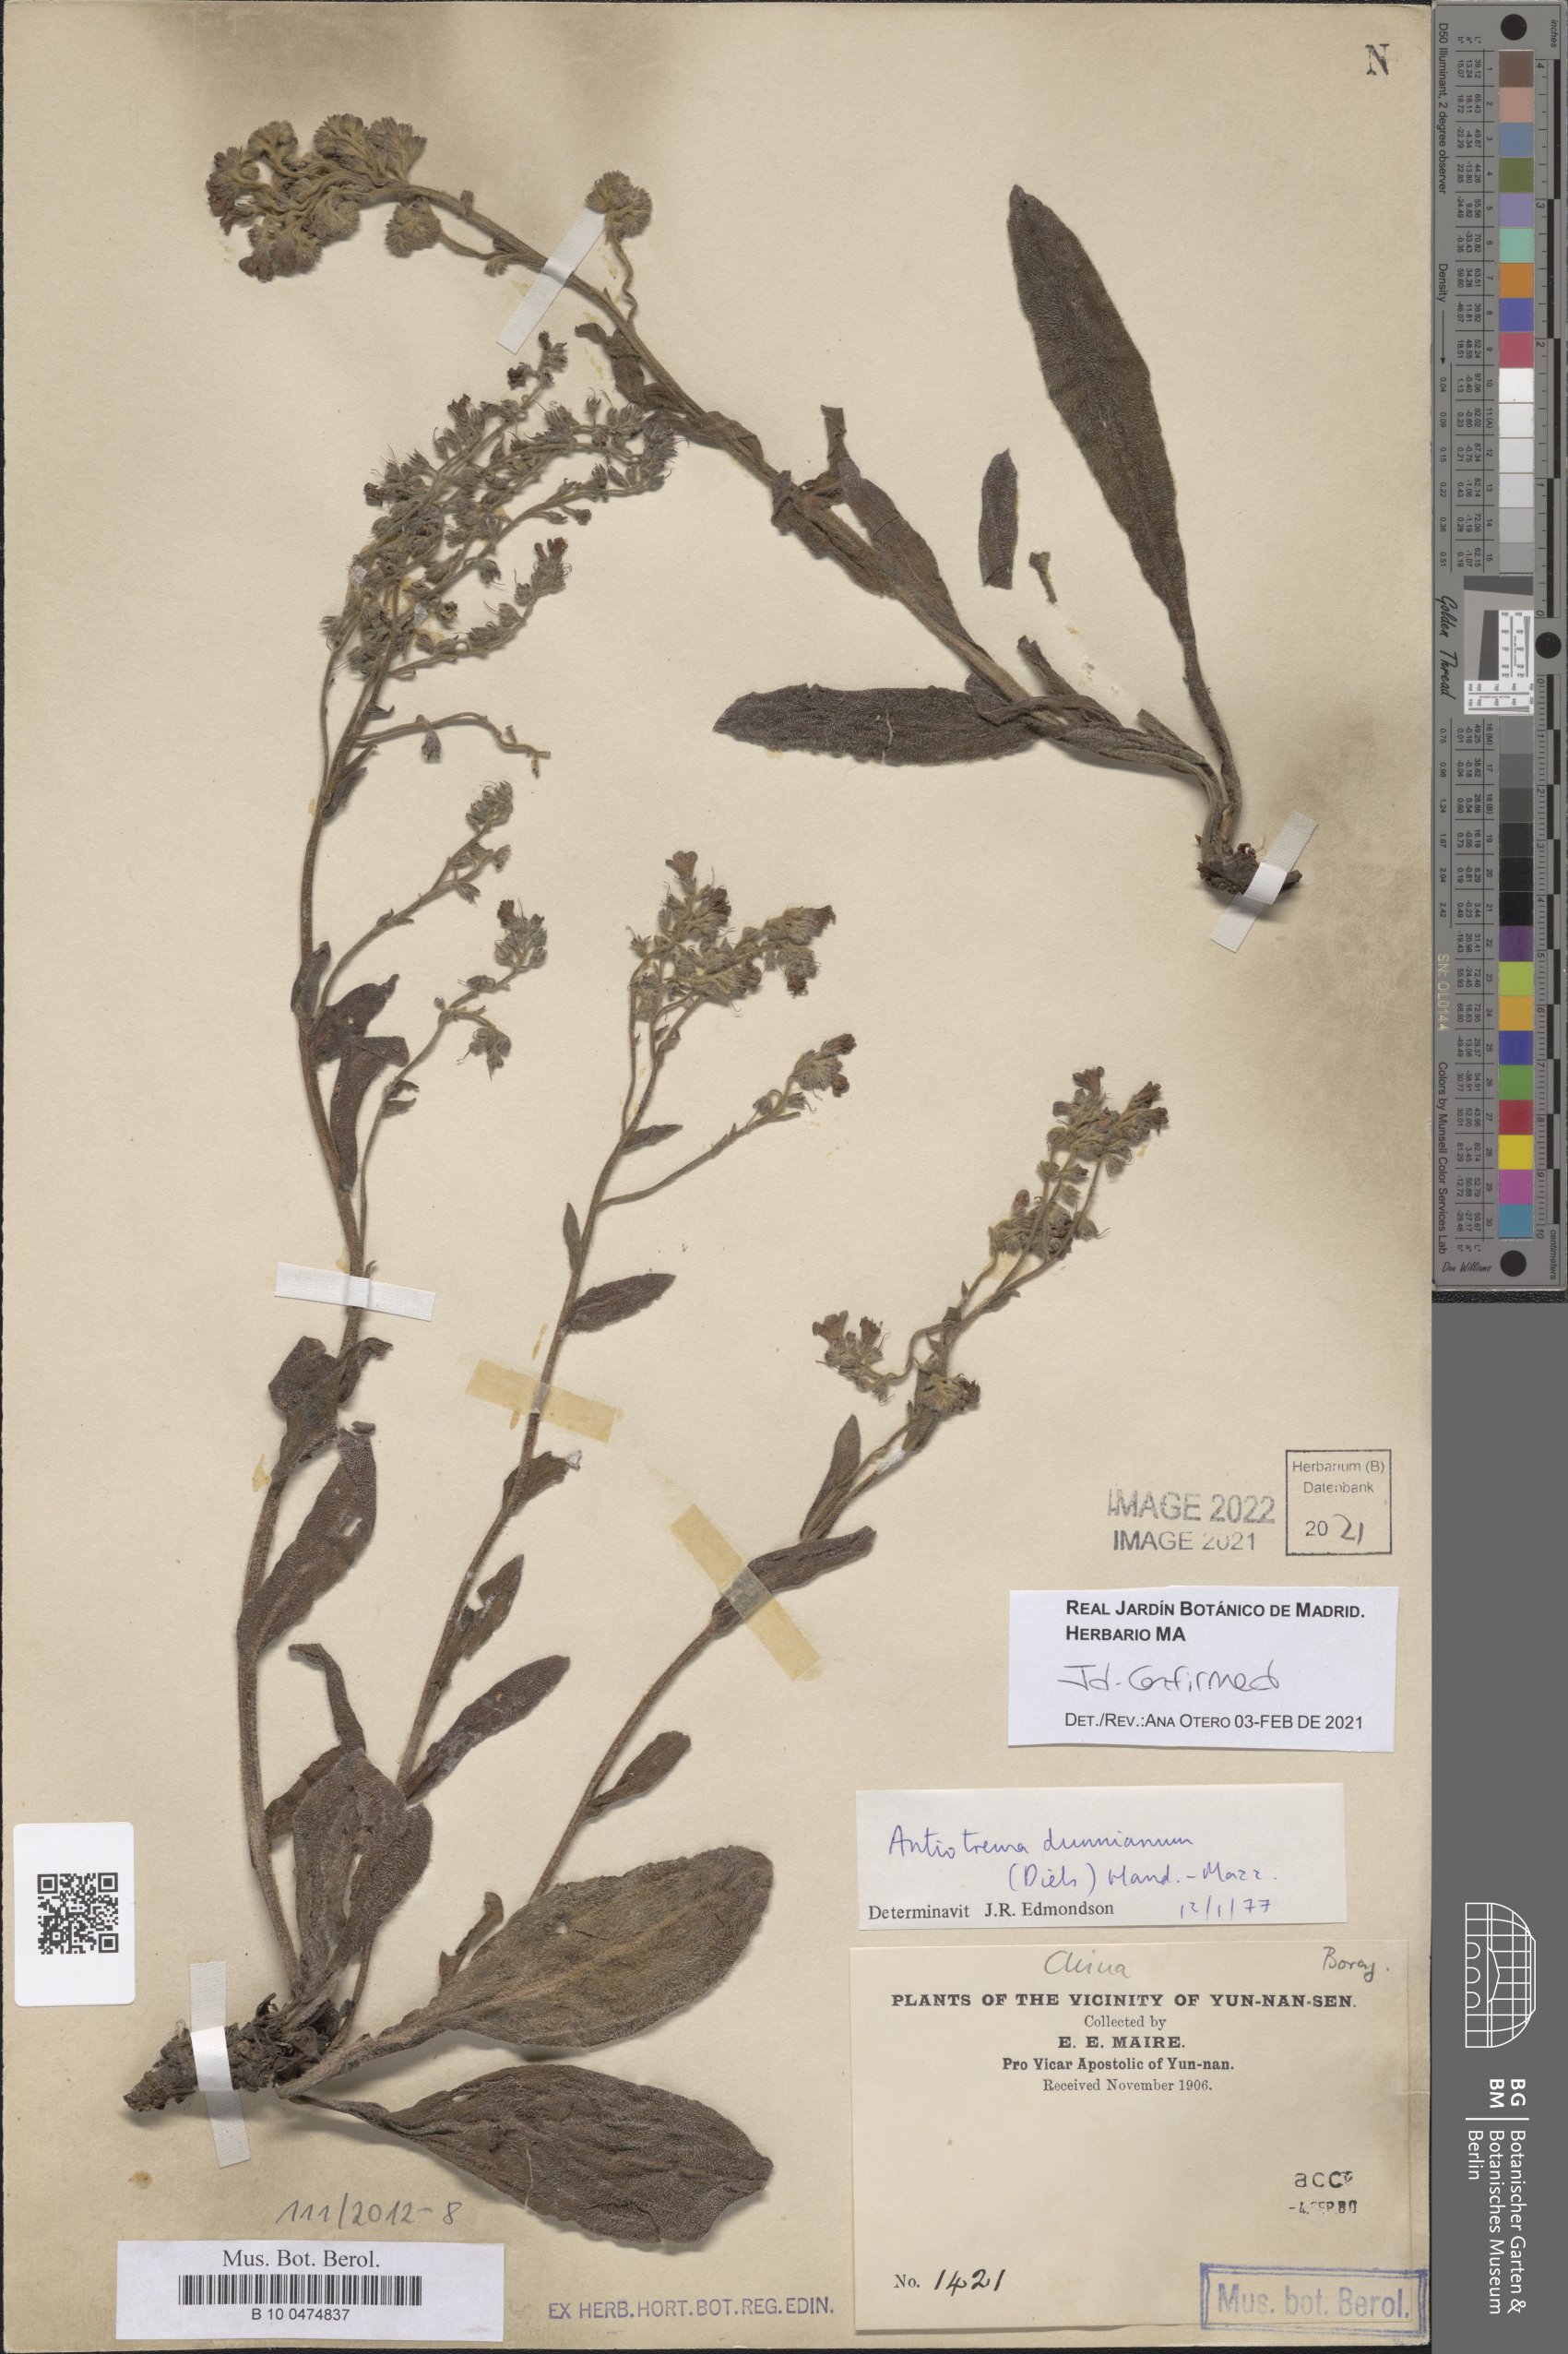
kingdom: Plantae
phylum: Tracheophyta
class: Magnoliopsida
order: Boraginales
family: Boraginaceae
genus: Antiotrema
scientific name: Antiotrema dunnianum
